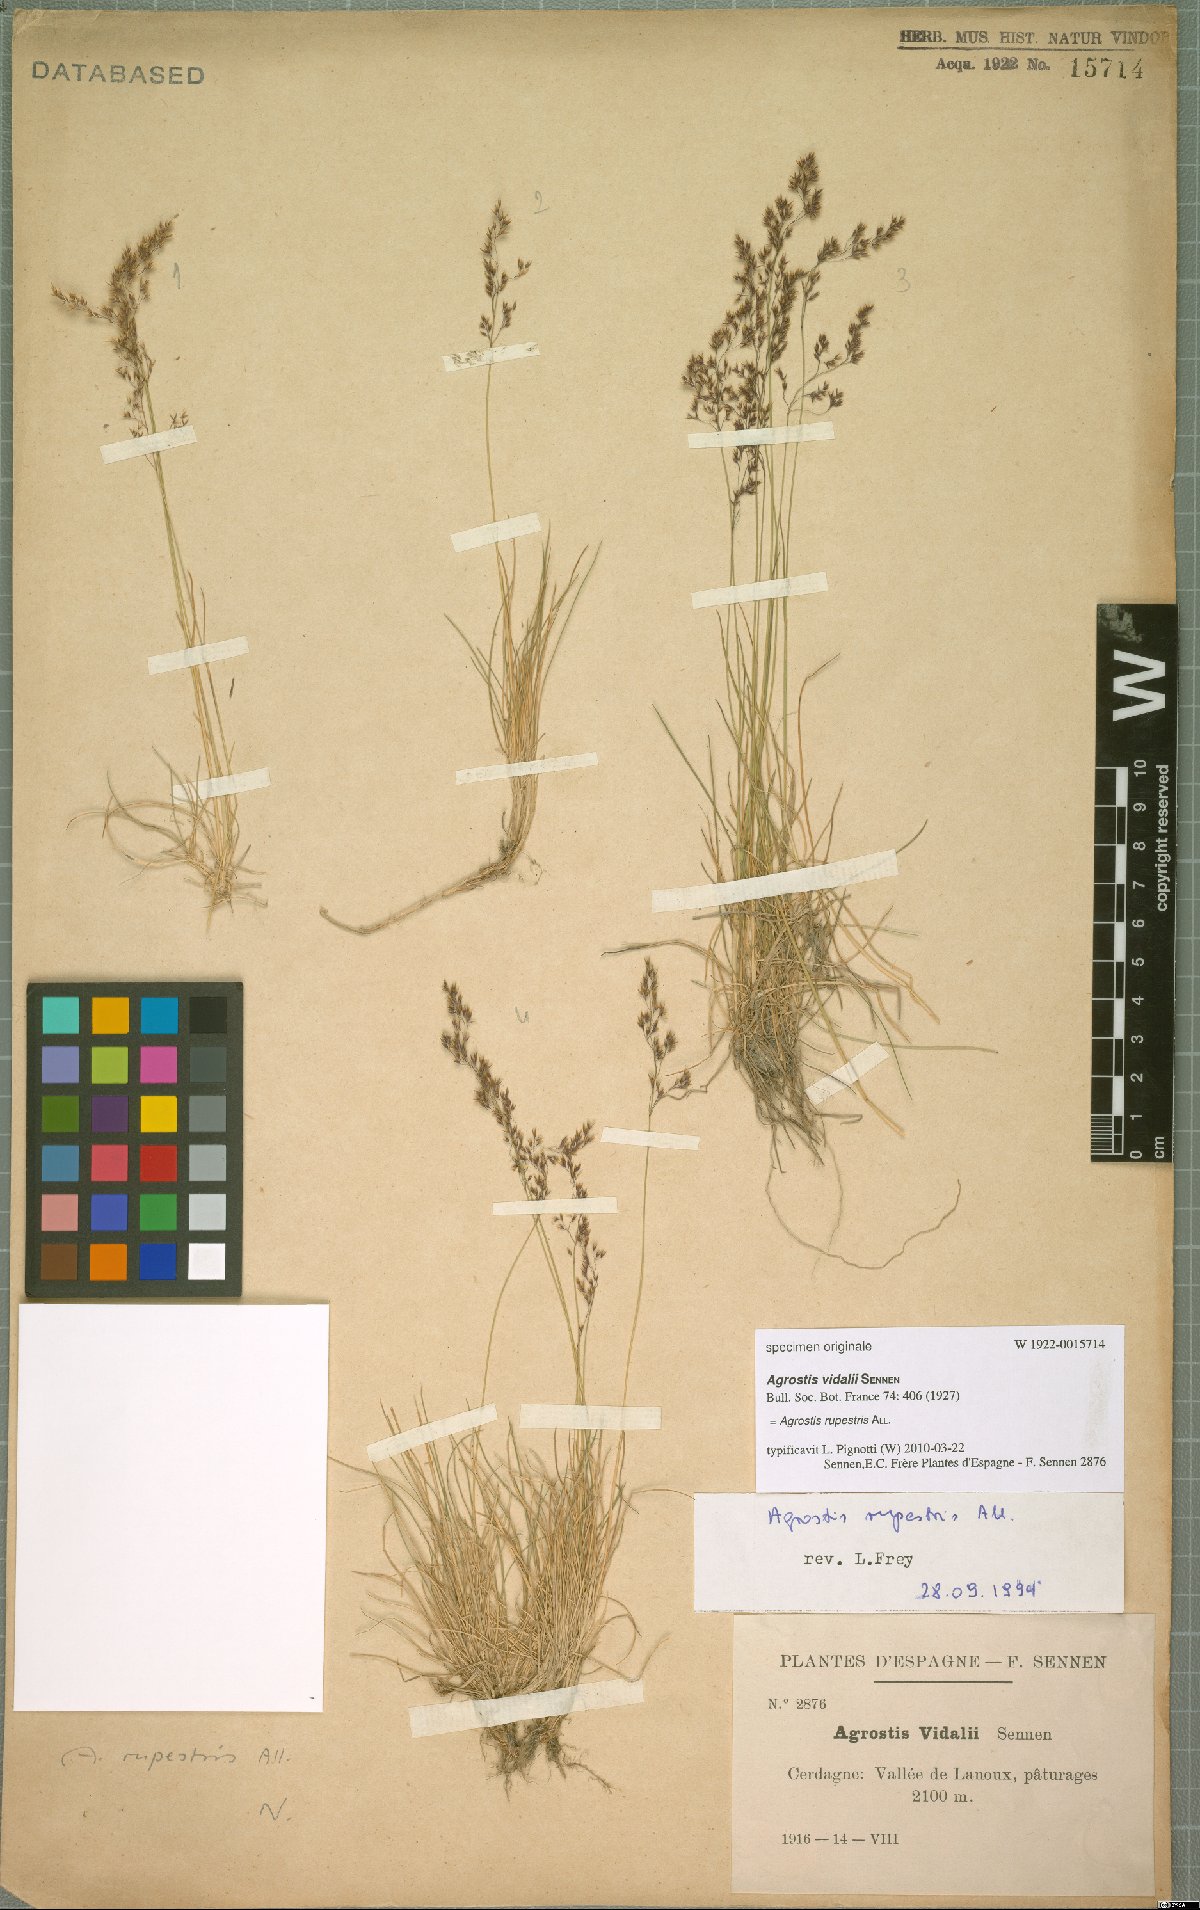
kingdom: Plantae
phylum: Tracheophyta
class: Liliopsida
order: Poales
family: Poaceae
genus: Agrostis
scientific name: Agrostis rupestris
